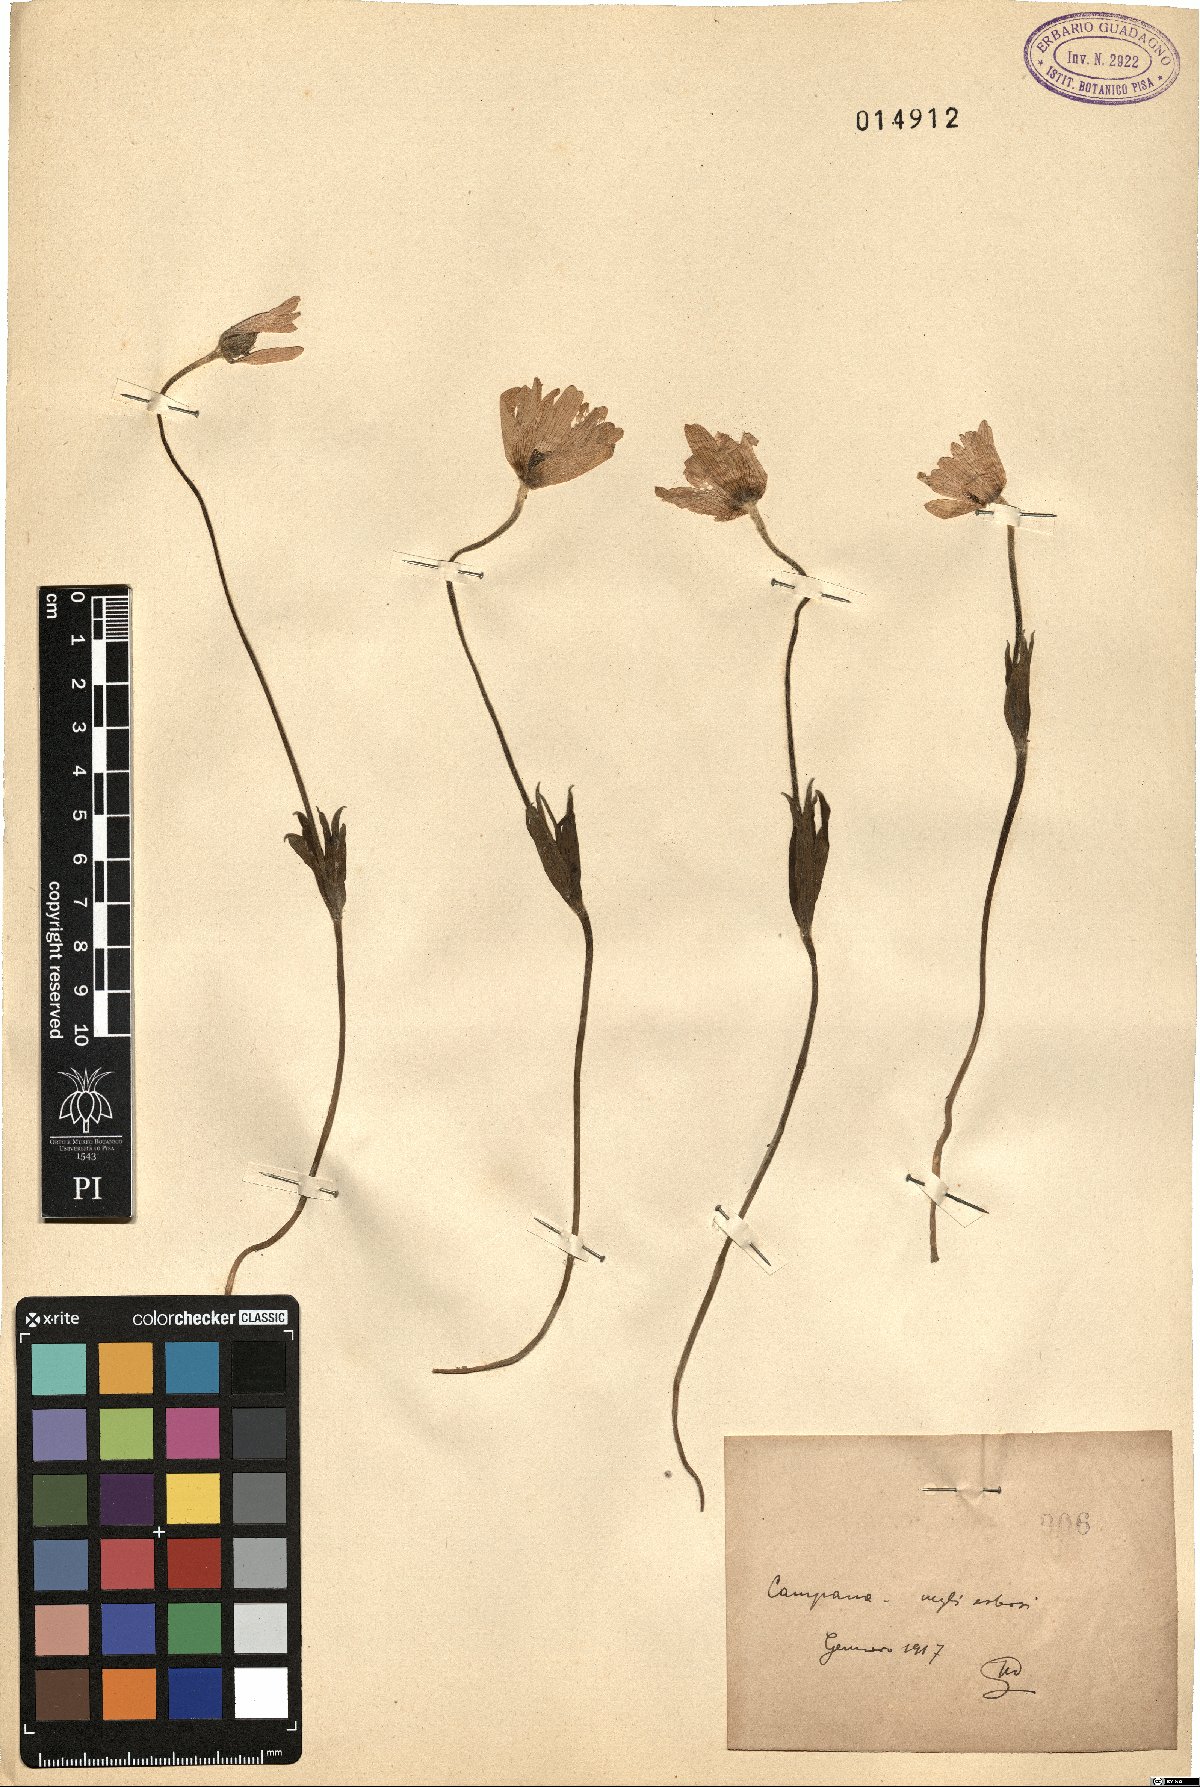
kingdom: Plantae
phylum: Tracheophyta
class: Magnoliopsida
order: Ranunculales
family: Ranunculaceae
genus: Anemone
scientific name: Anemone hortensis
